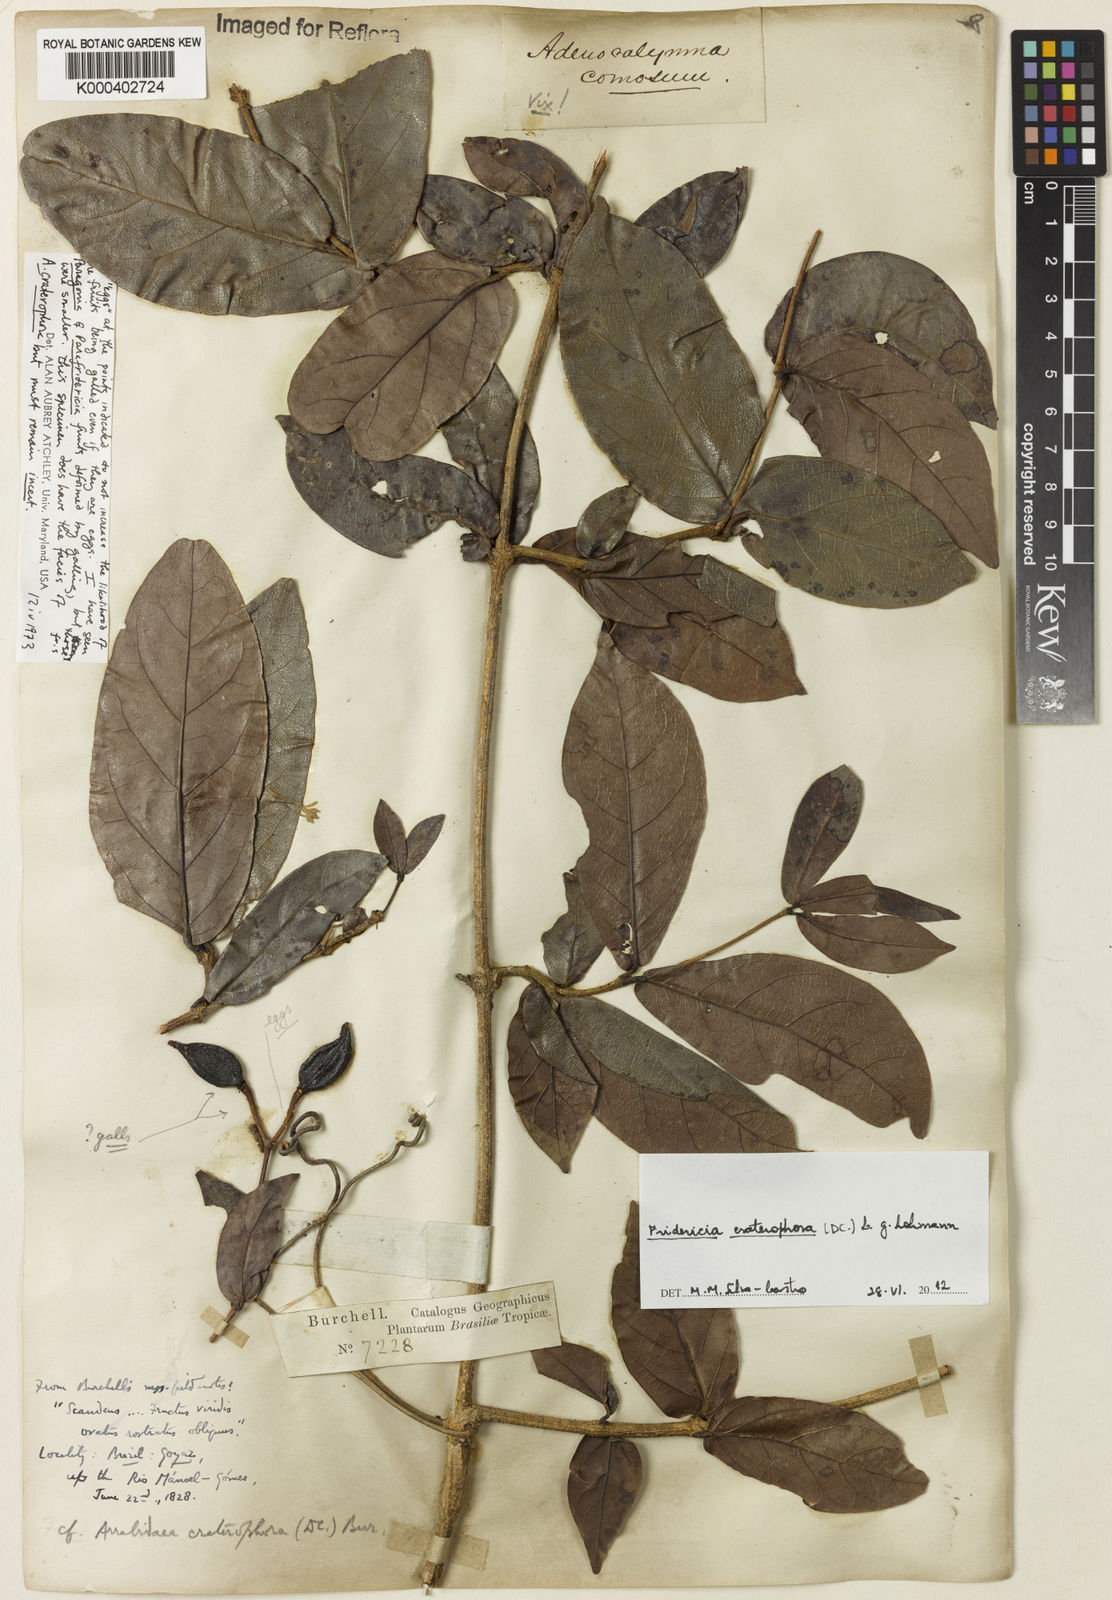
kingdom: Plantae
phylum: Tracheophyta
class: Magnoliopsida
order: Lamiales
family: Bignoniaceae
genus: Fridericia
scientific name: Fridericia craterophora
